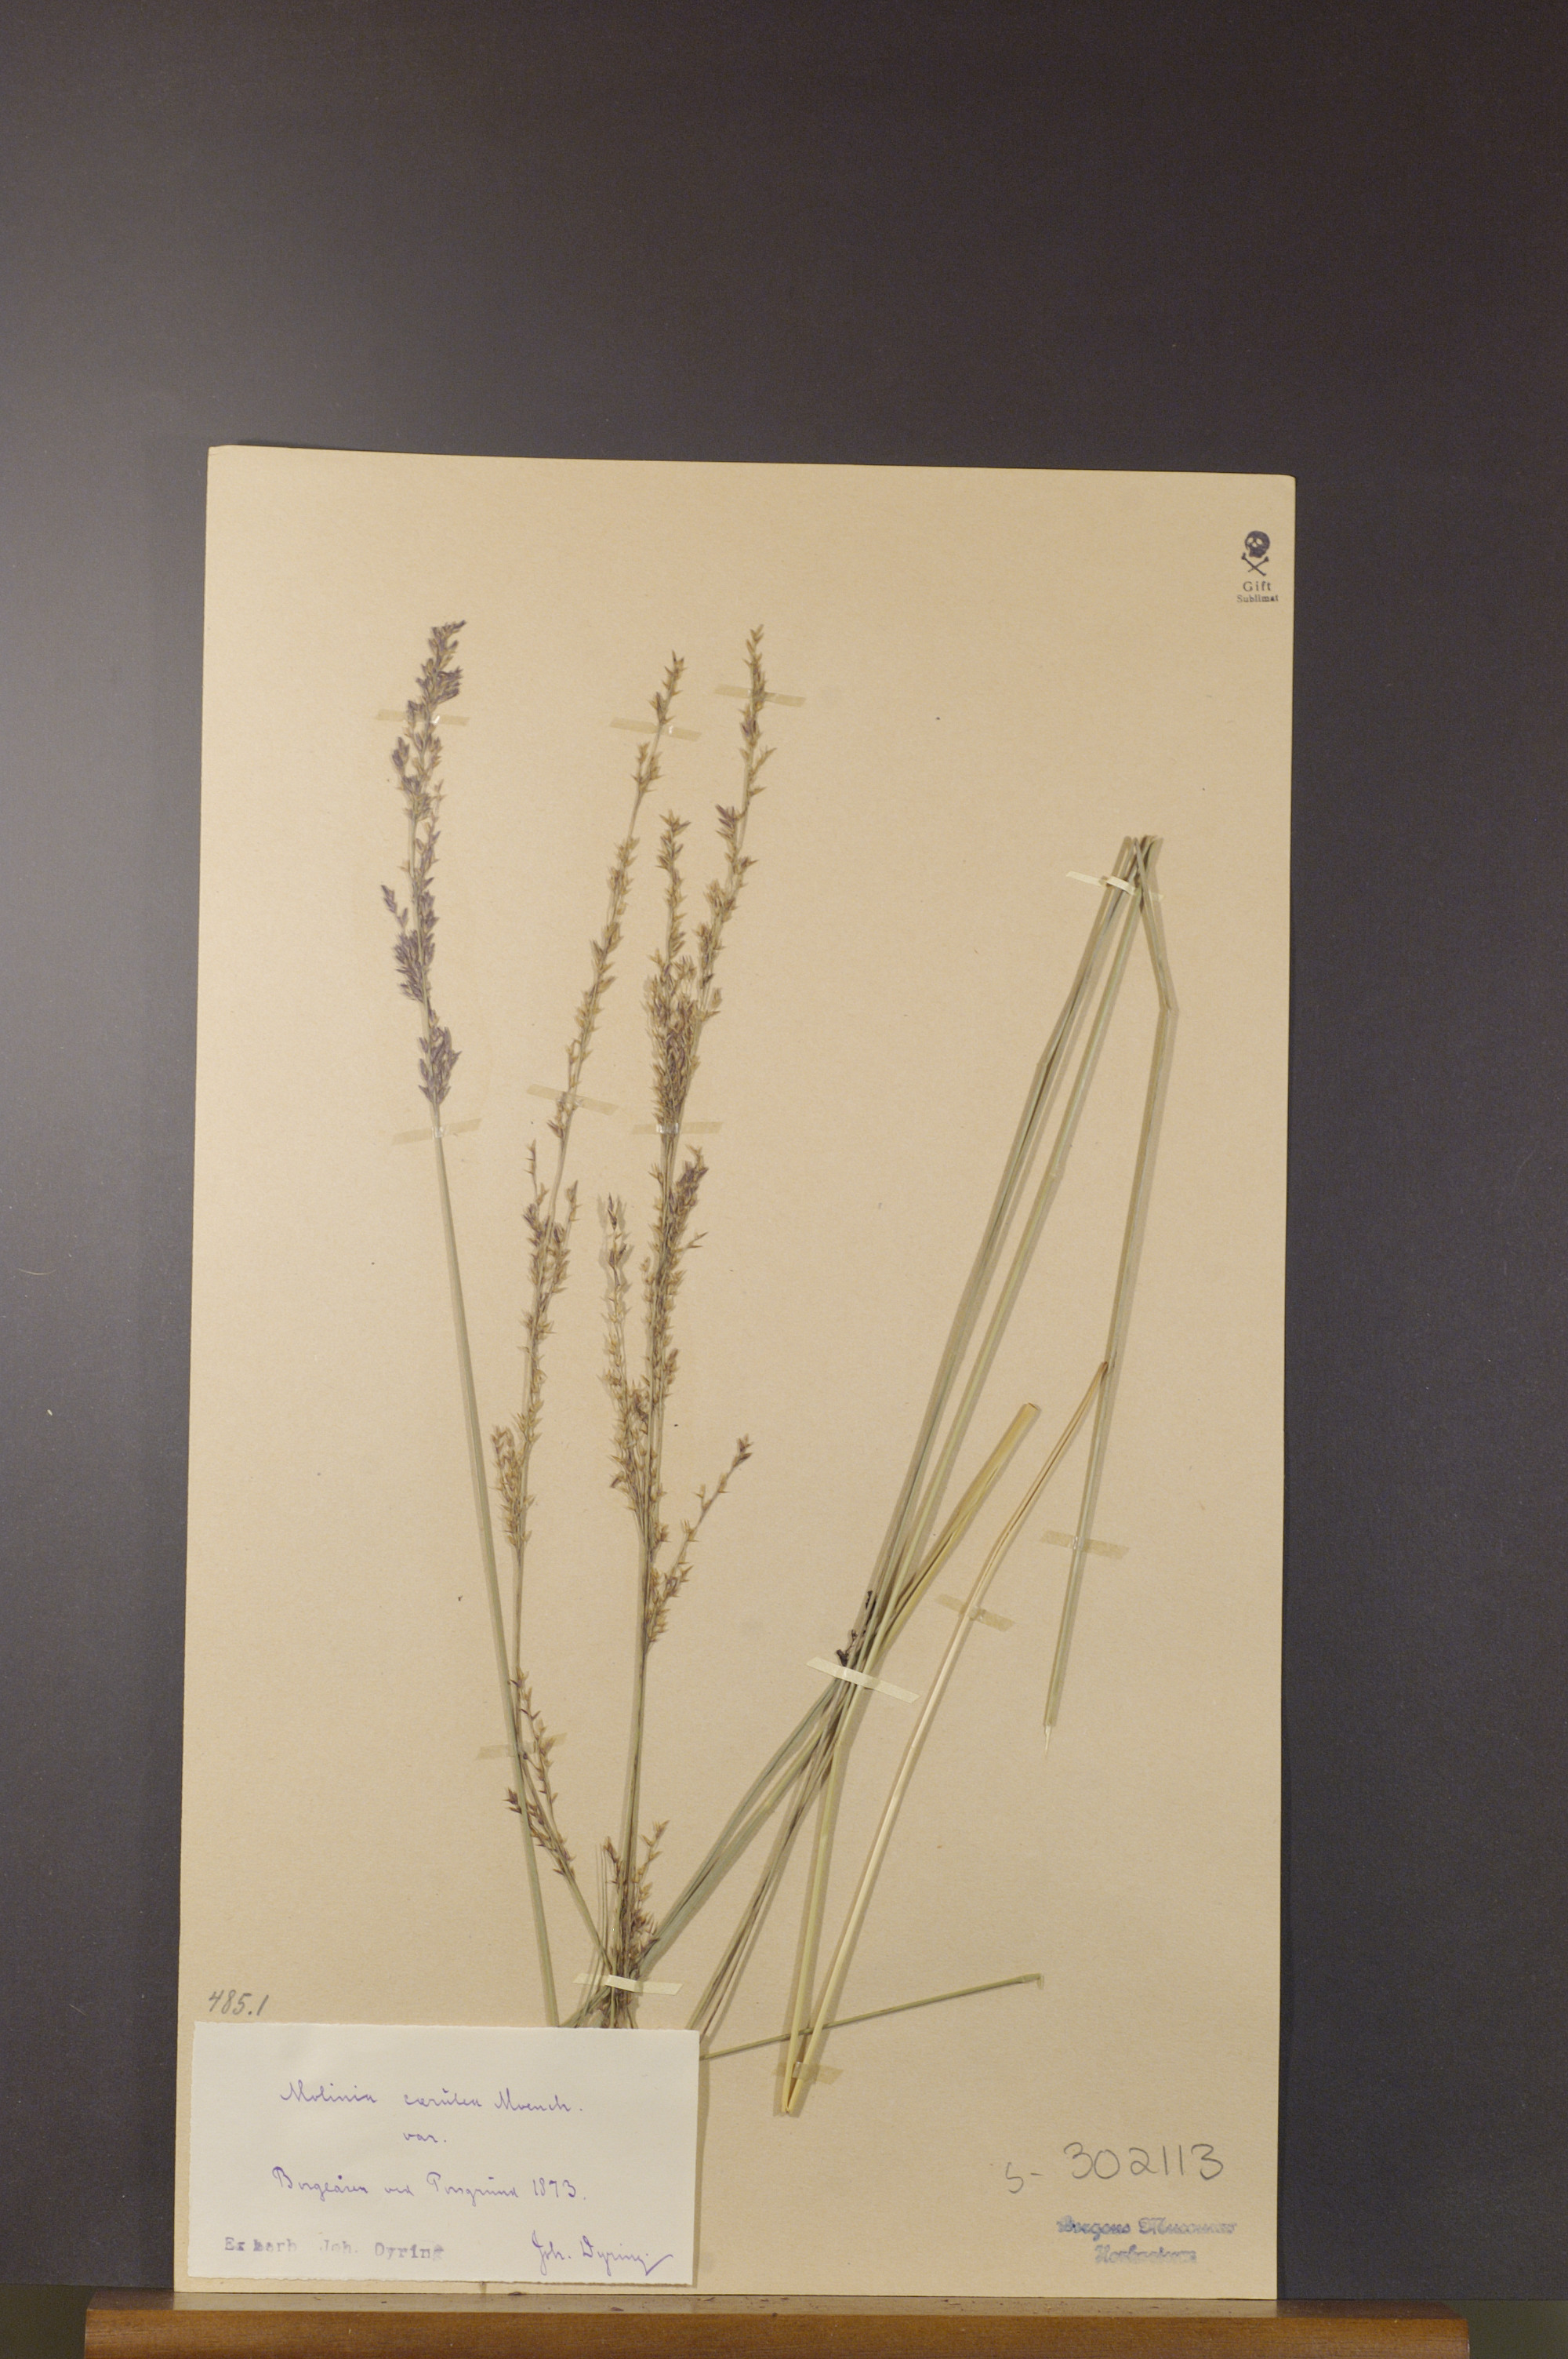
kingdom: Plantae
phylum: Tracheophyta
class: Liliopsida
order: Poales
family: Poaceae
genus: Molinia
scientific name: Molinia caerulea
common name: Purple moor-grass
